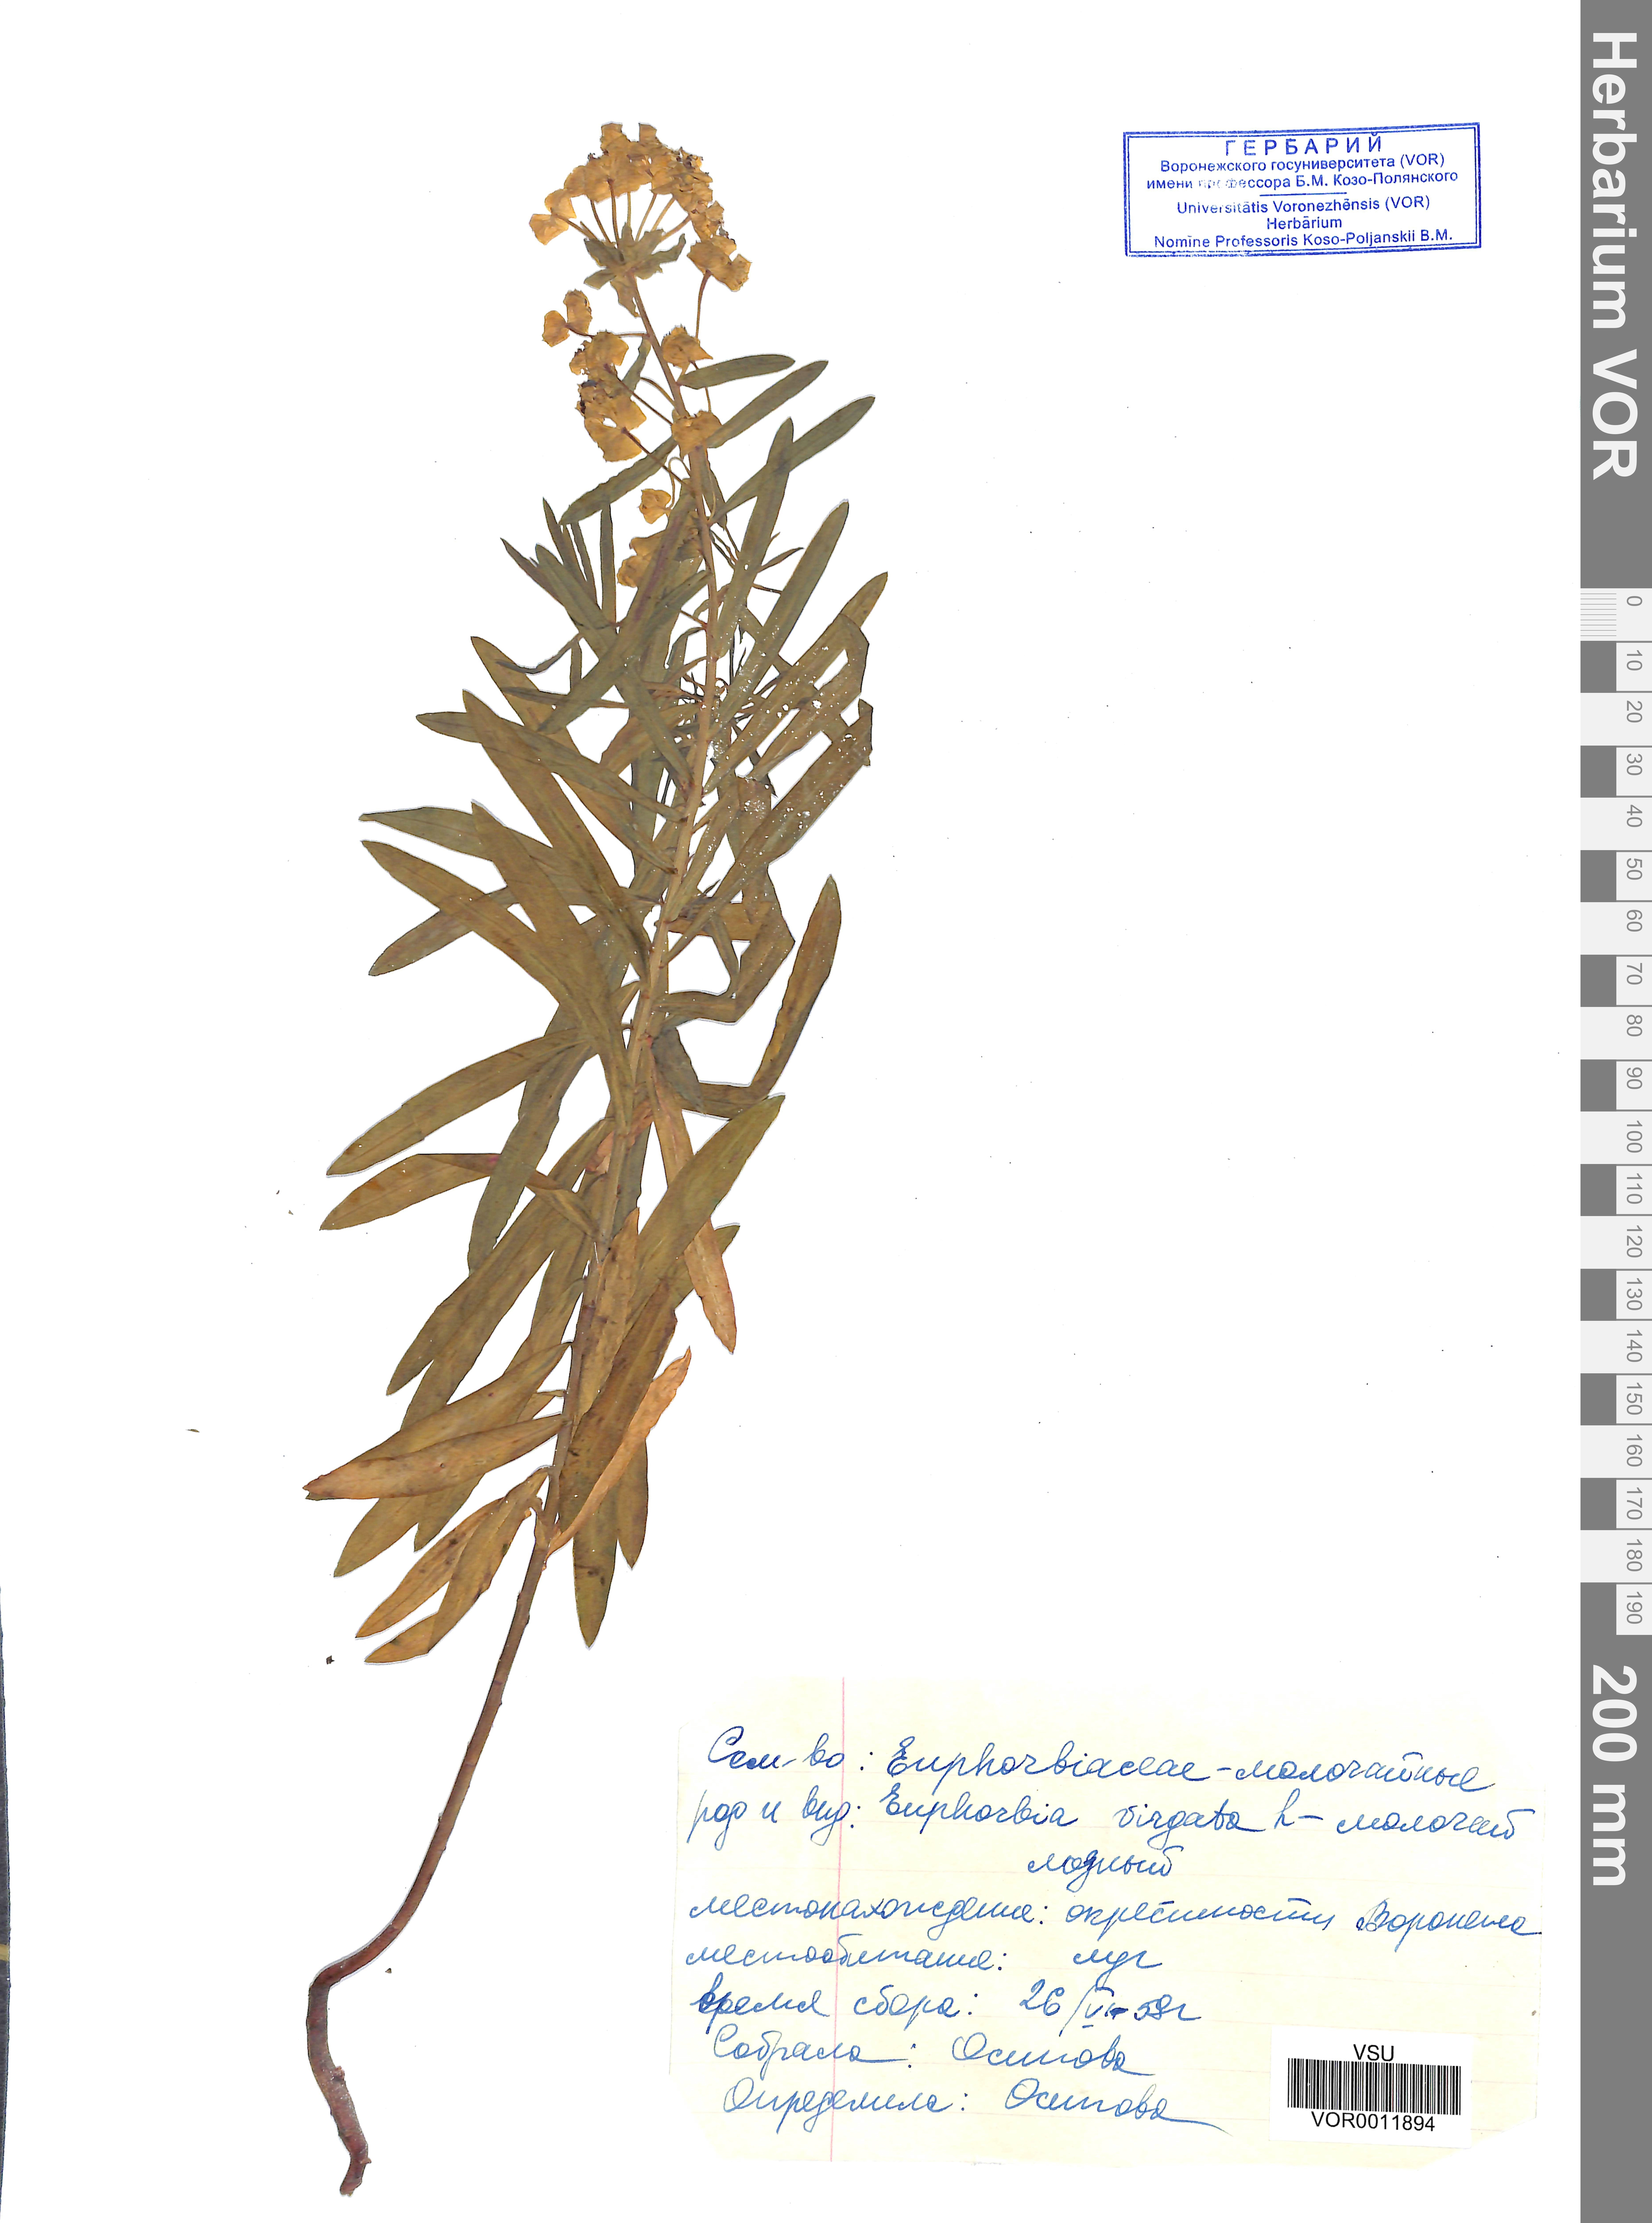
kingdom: Plantae
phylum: Tracheophyta
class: Magnoliopsida
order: Malpighiales
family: Euphorbiaceae
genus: Euphorbia
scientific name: Euphorbia virgata
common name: Leafy spurge
